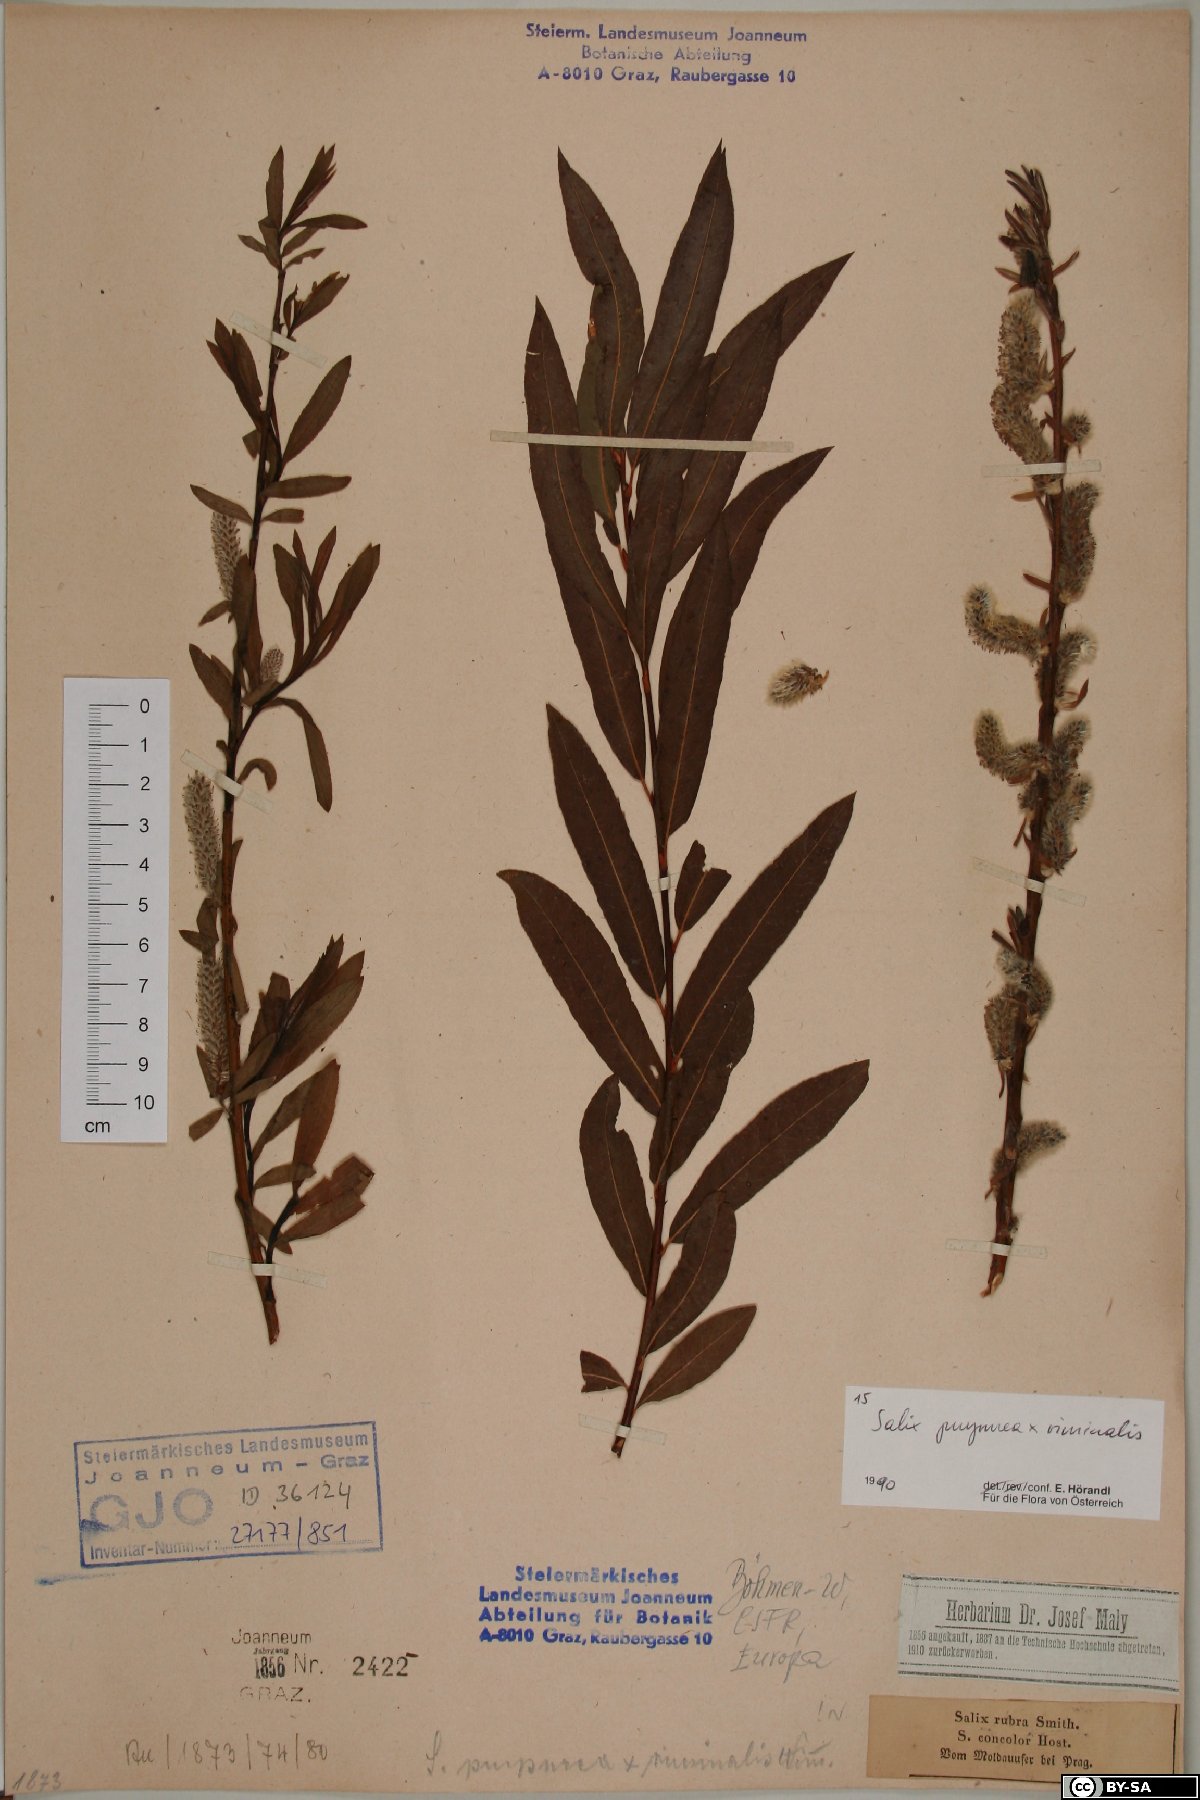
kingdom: Plantae
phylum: Tracheophyta
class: Magnoliopsida
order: Malpighiales
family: Salicaceae
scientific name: Salicaceae
